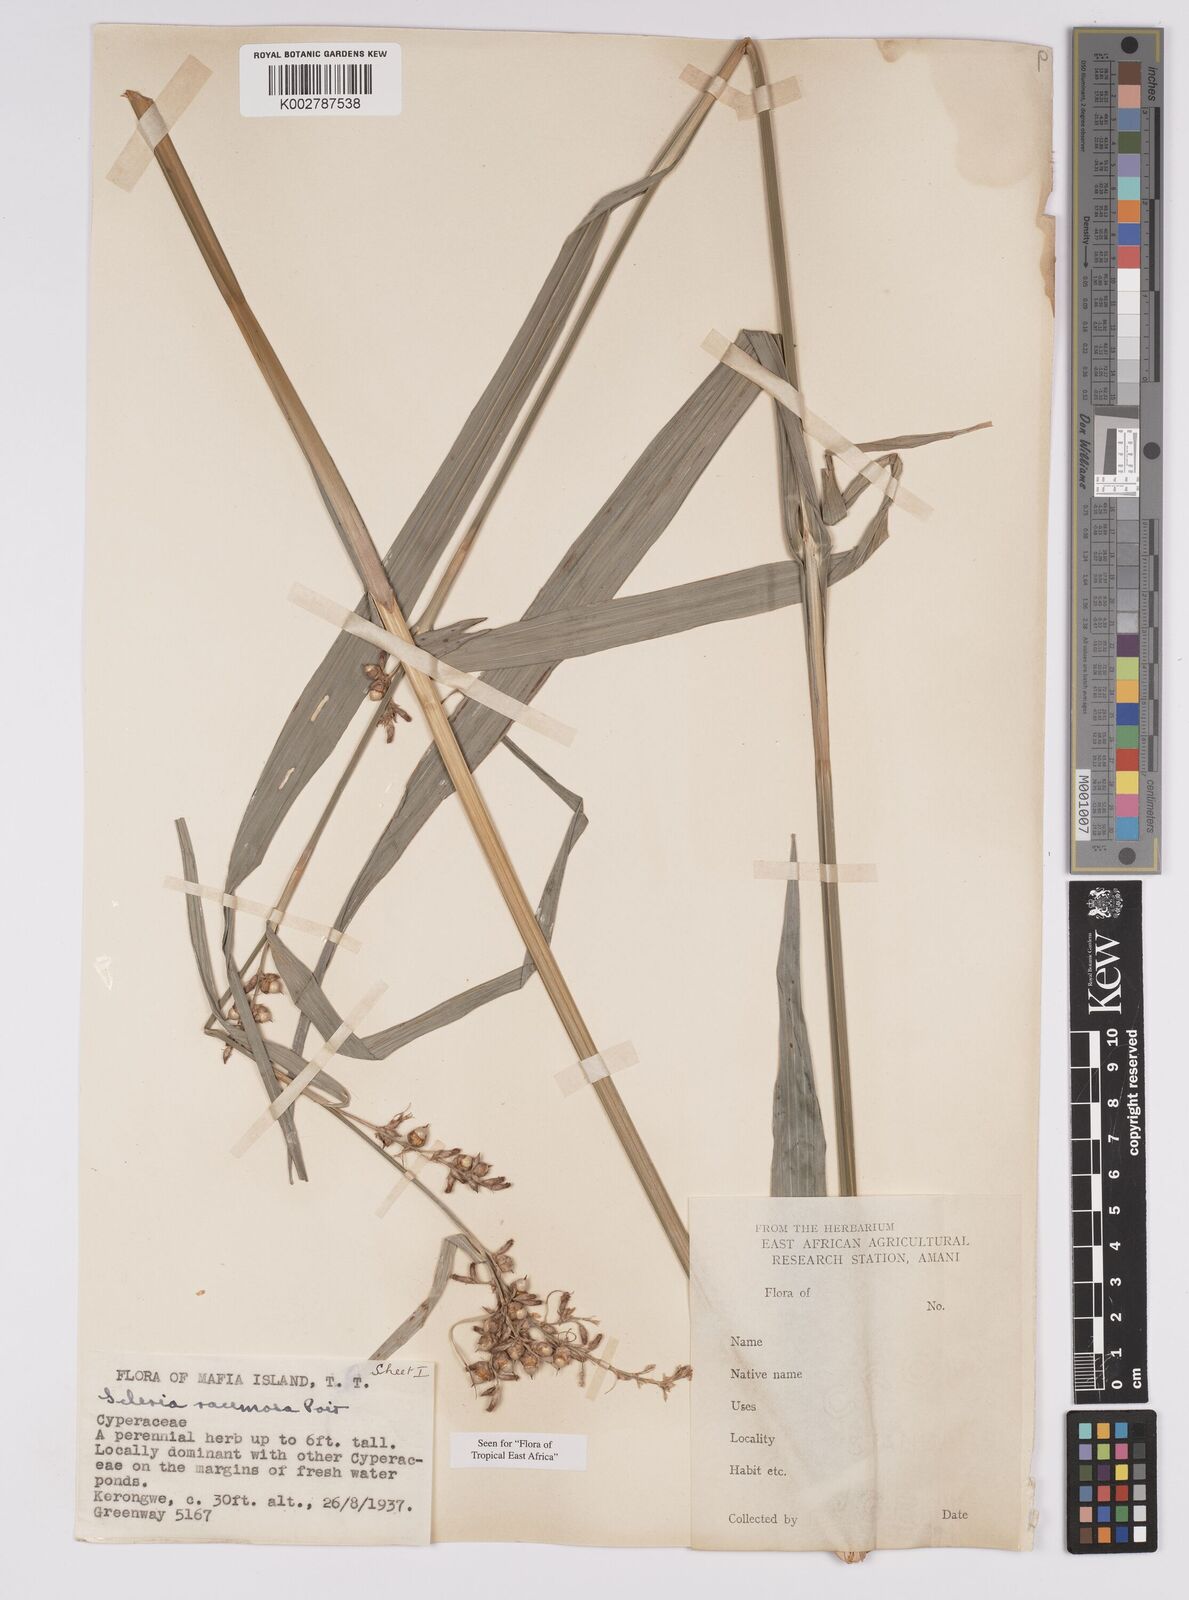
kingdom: Plantae
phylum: Tracheophyta
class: Liliopsida
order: Poales
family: Cyperaceae
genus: Scleria
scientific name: Scleria racemosa
